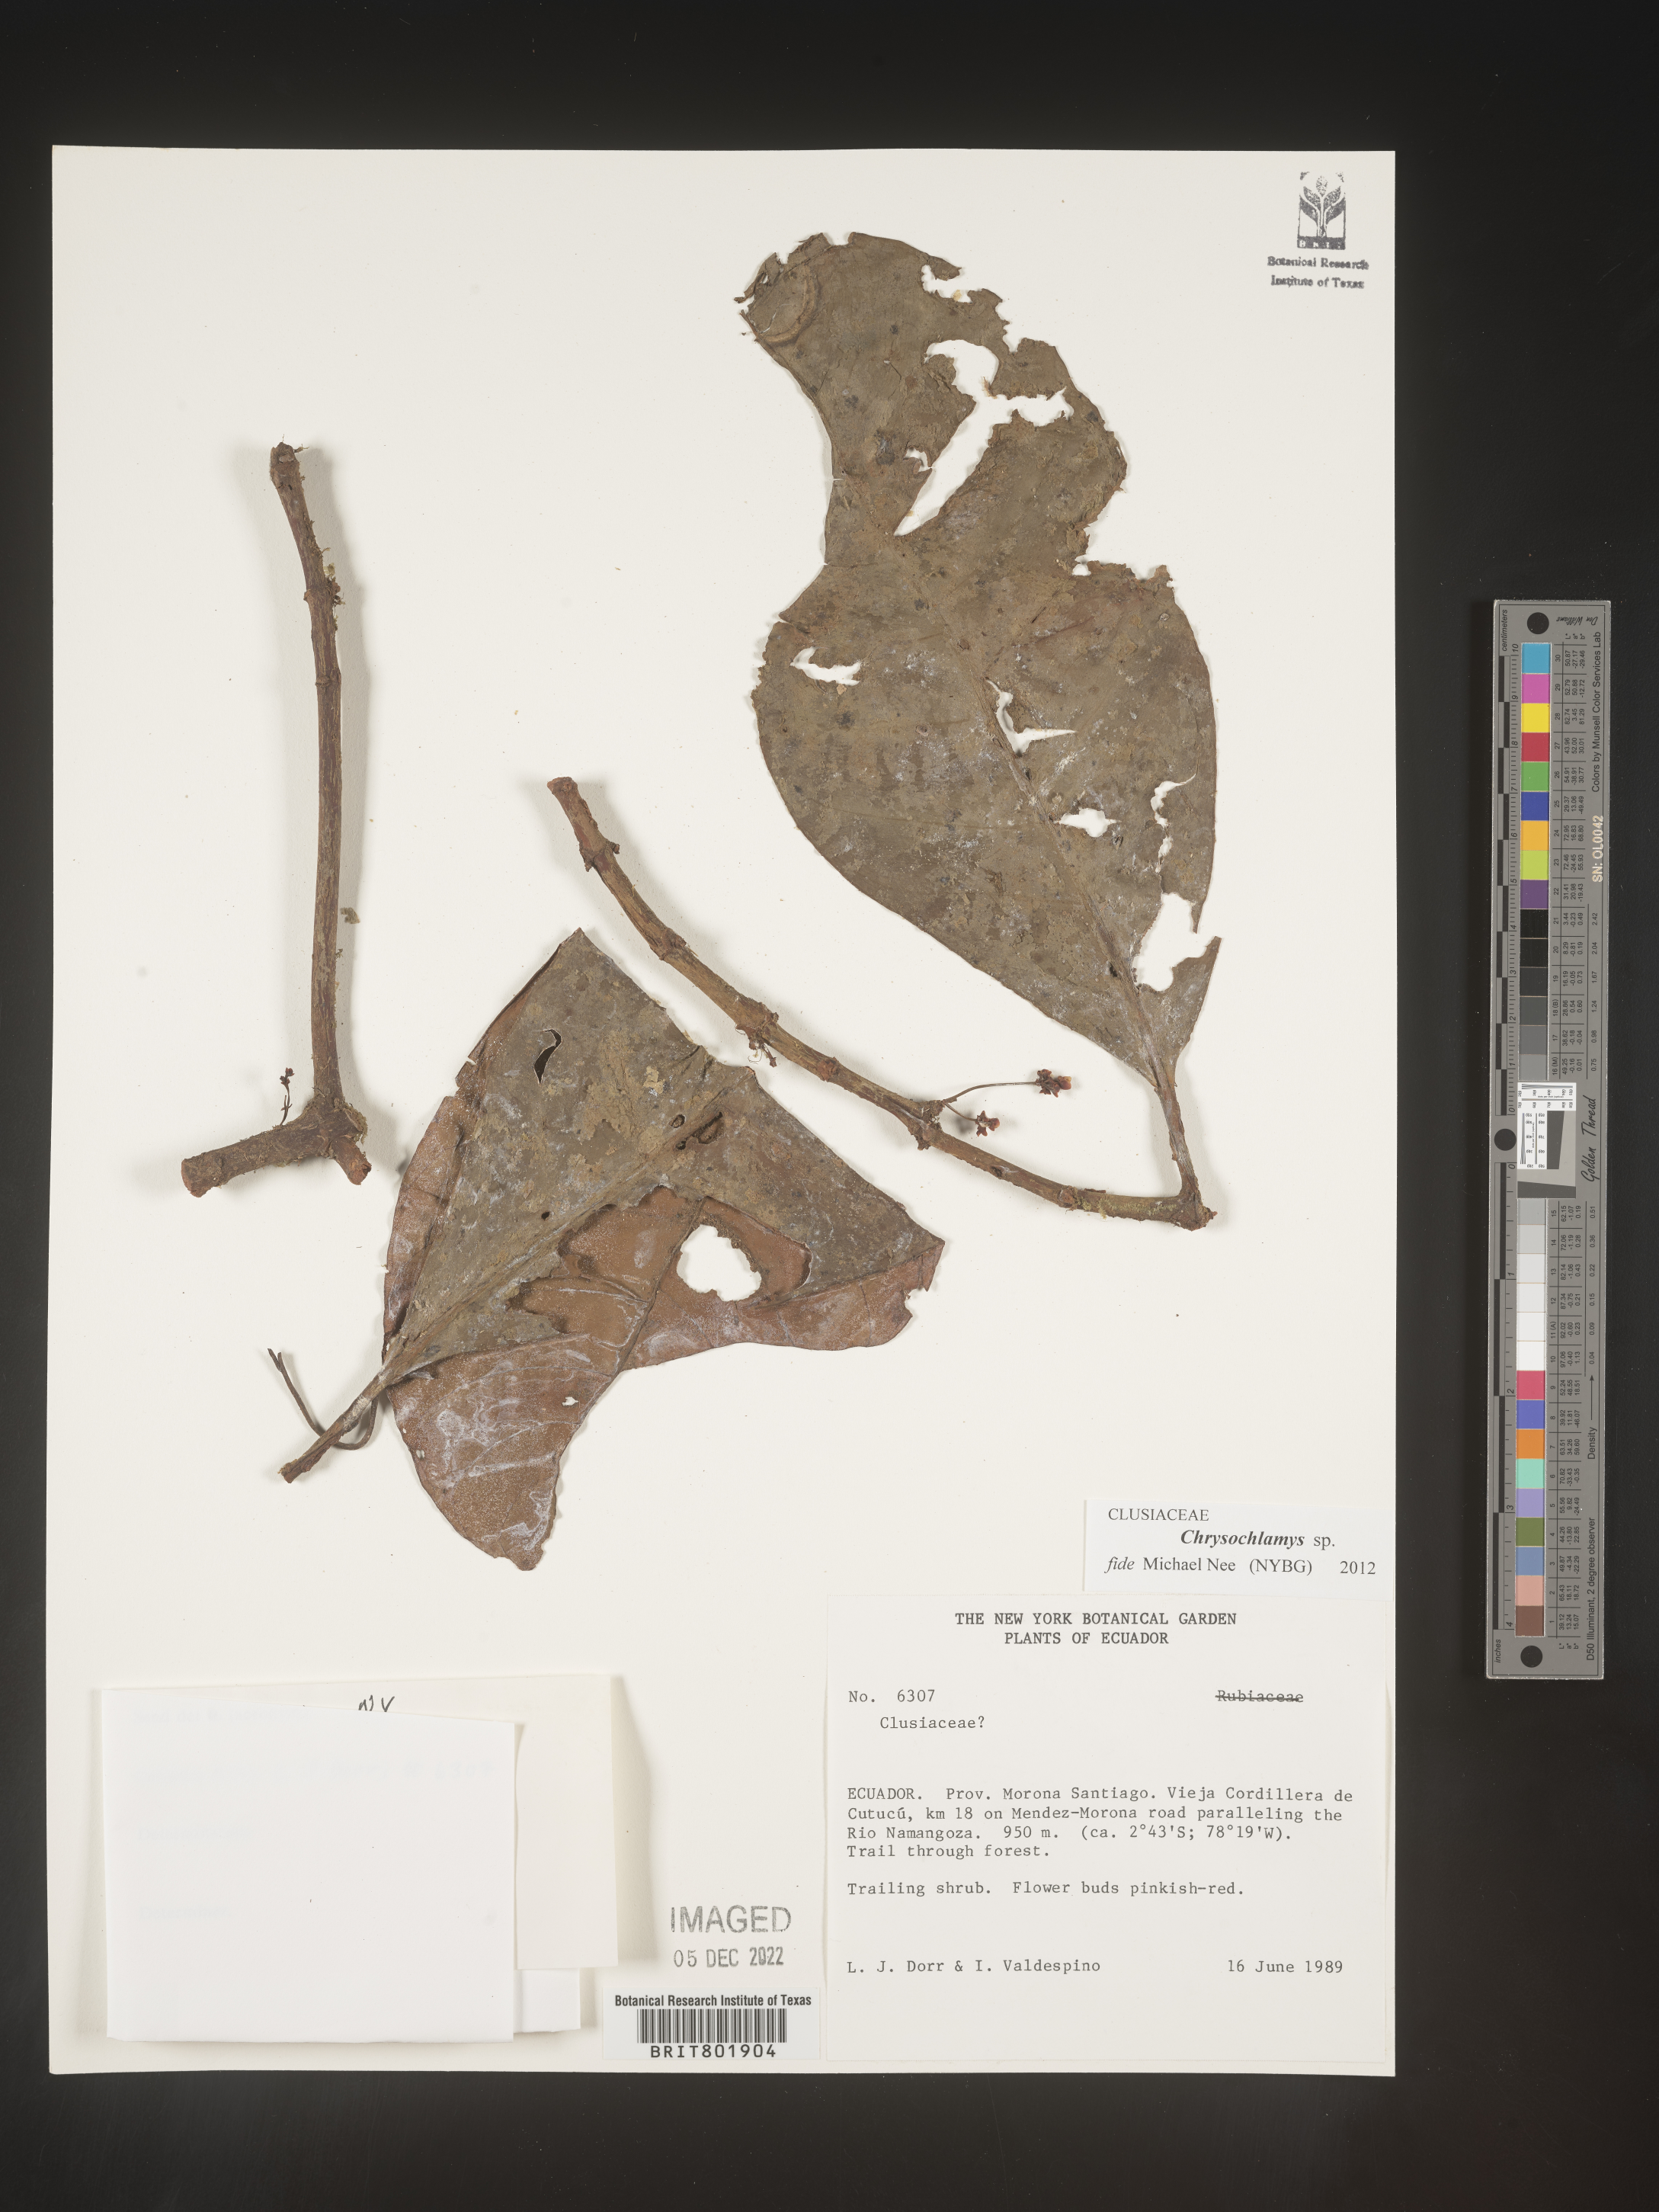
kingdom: Plantae
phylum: Tracheophyta
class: Magnoliopsida
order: Malpighiales
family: Clusiaceae
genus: Chrysochlamys
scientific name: Chrysochlamys
